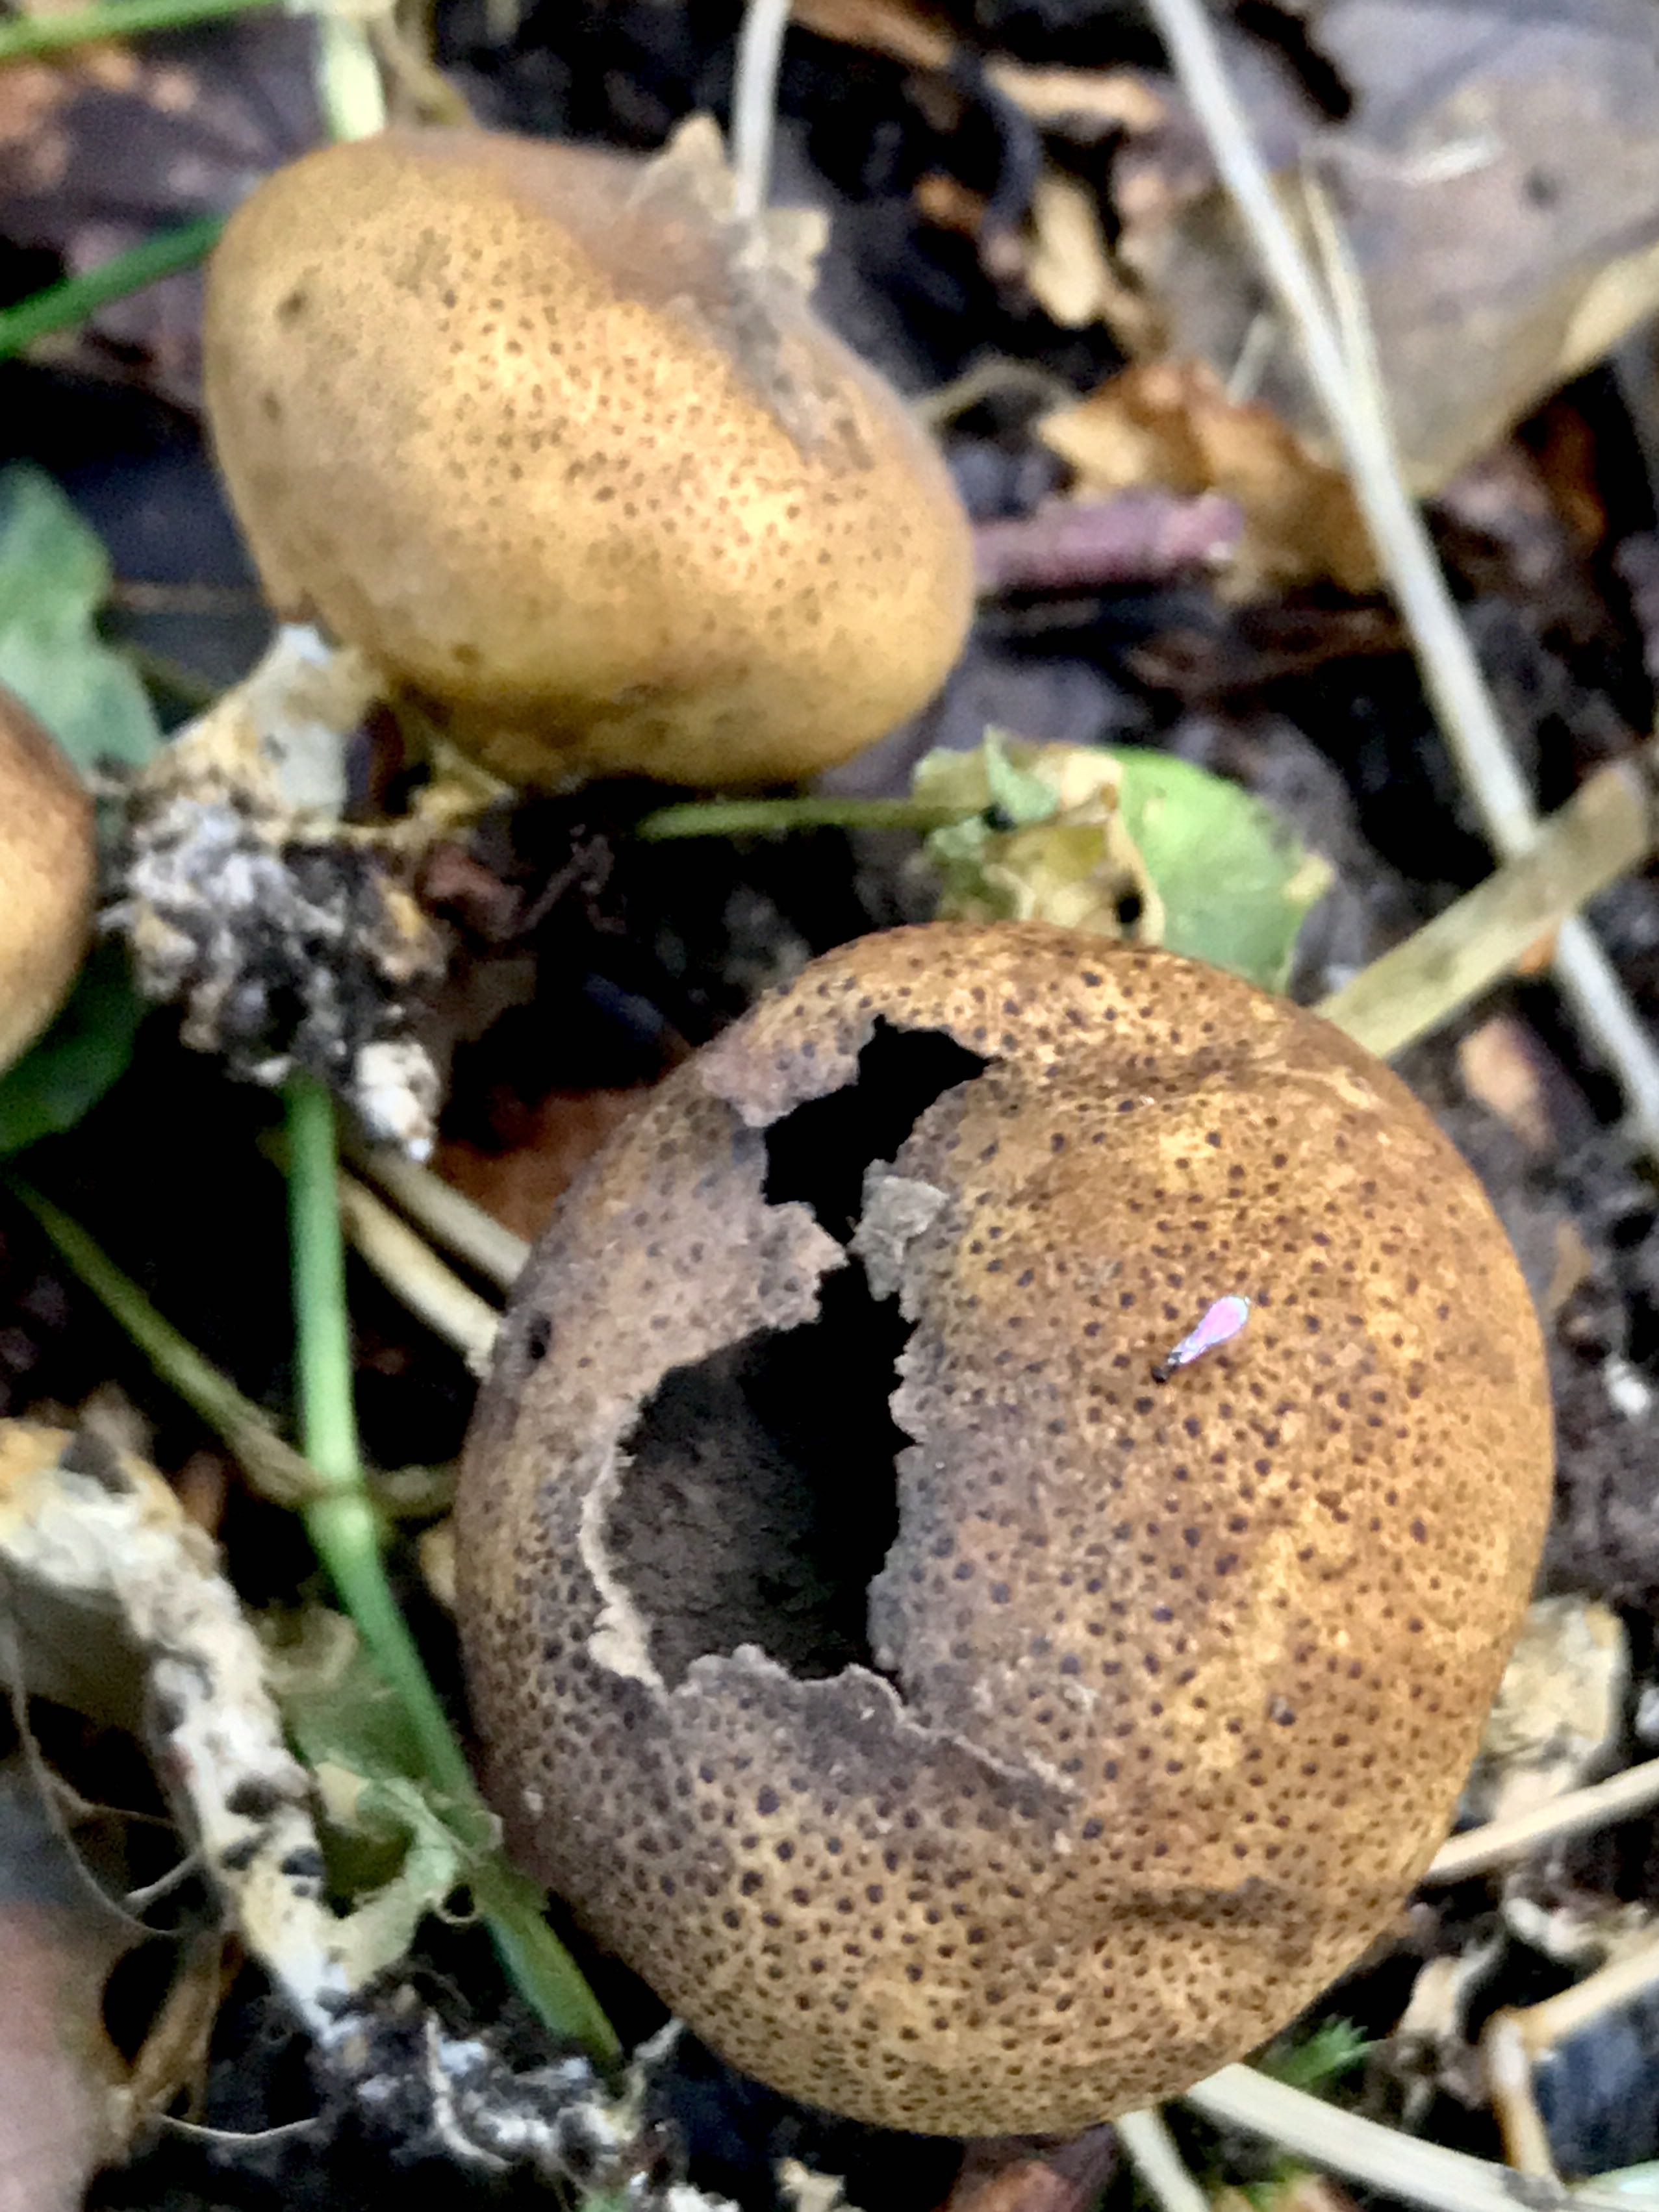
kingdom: Fungi
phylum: Basidiomycota
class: Agaricomycetes
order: Boletales
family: Sclerodermataceae
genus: Scleroderma
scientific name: Scleroderma
